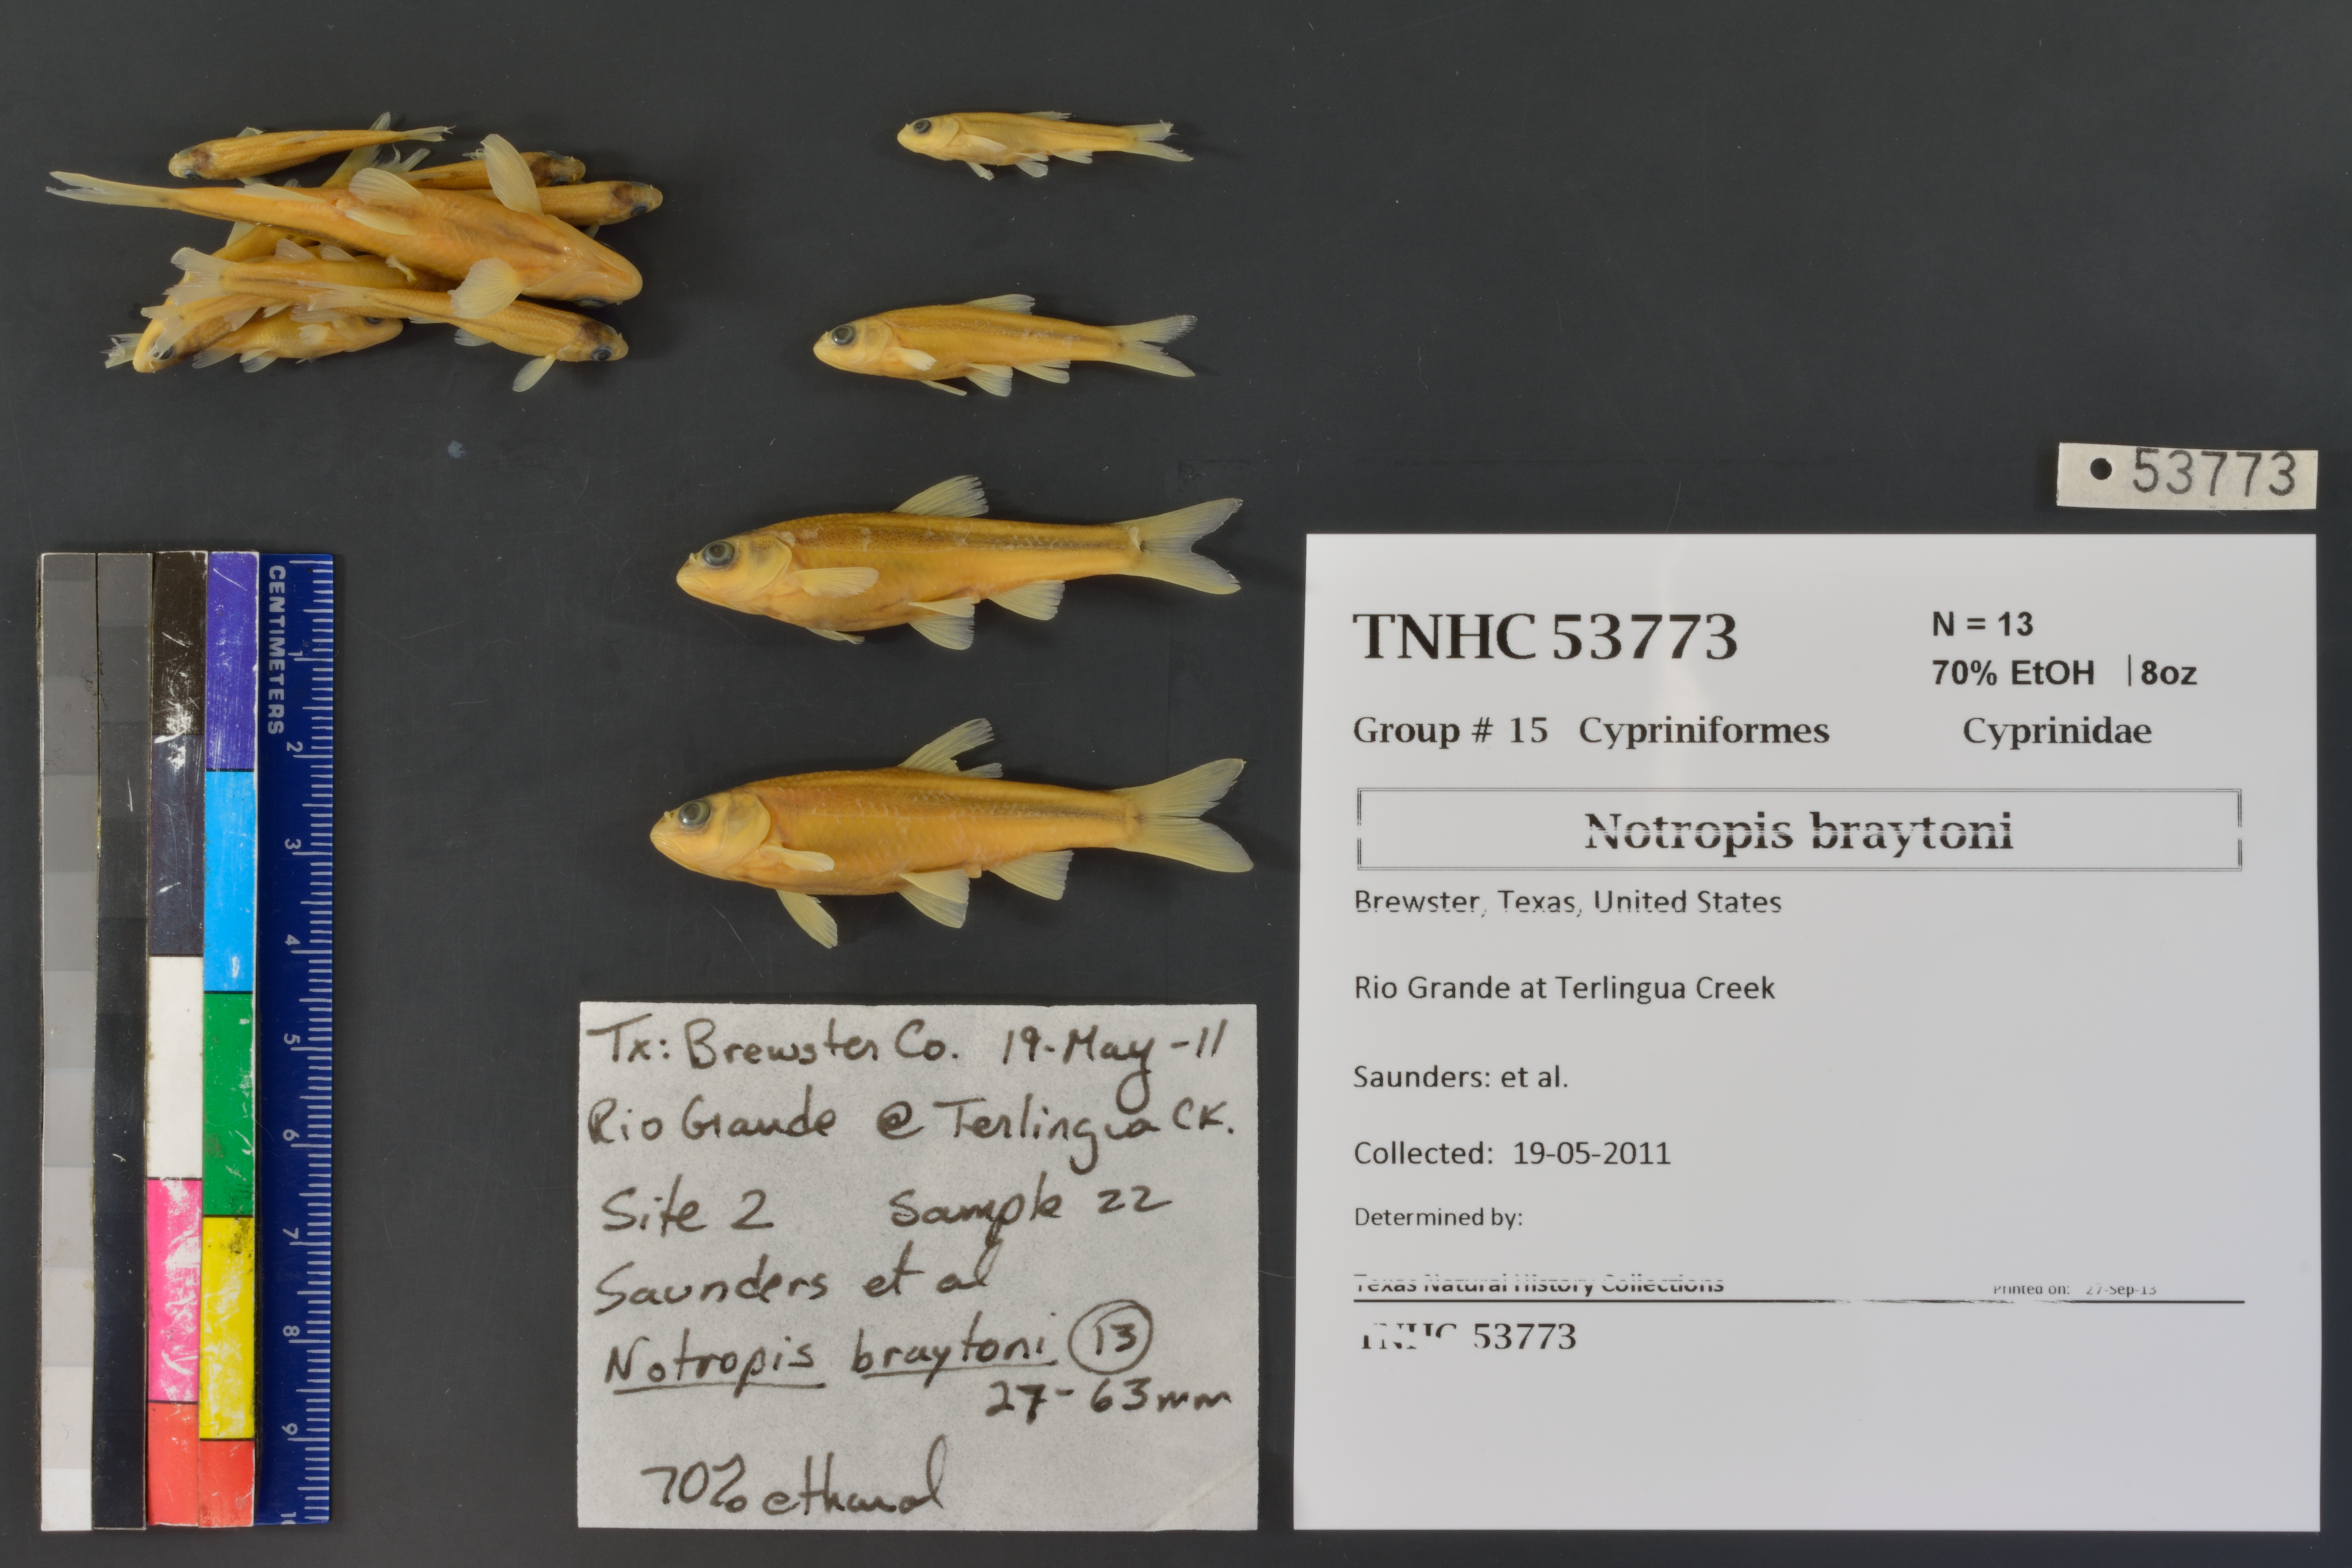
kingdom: Animalia
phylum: Chordata
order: Cypriniformes
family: Cyprinidae
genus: Notropis
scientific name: Notropis braytoni
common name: Tamaulipas shiner
